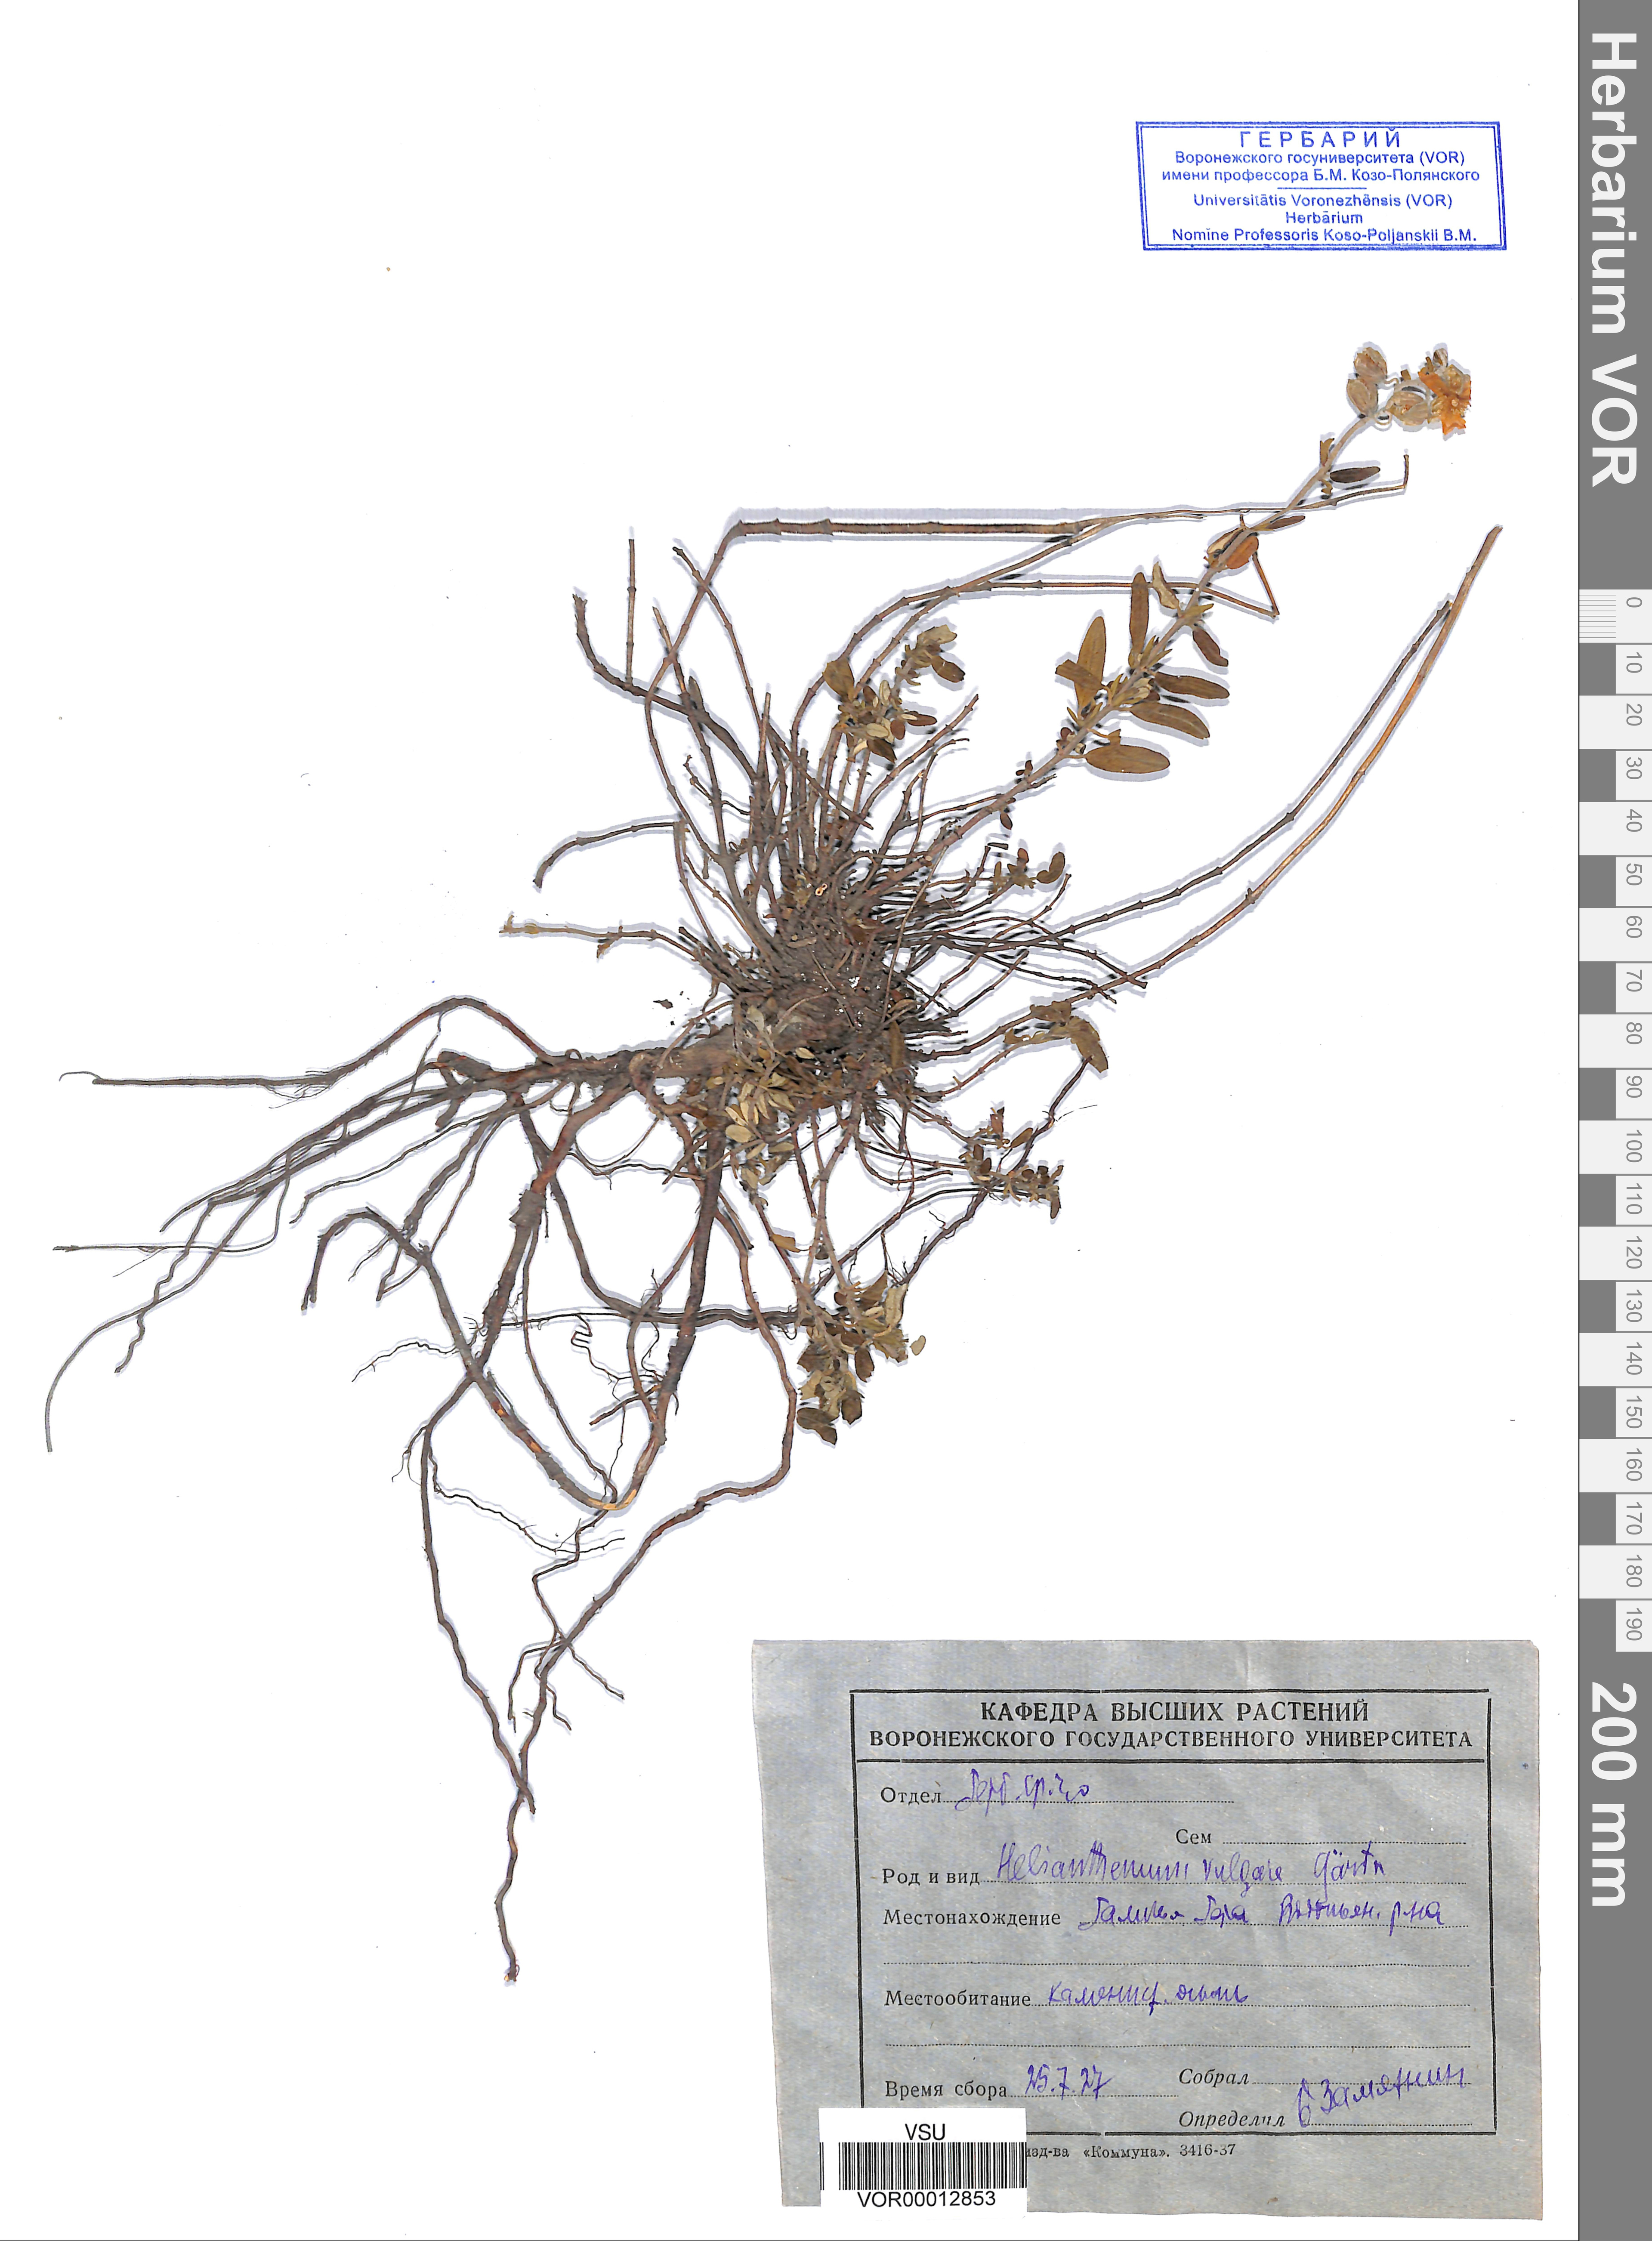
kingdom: Plantae
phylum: Tracheophyta
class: Magnoliopsida
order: Malvales
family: Cistaceae
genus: Helianthemum
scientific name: Helianthemum nummularium
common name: Common rock-rose
